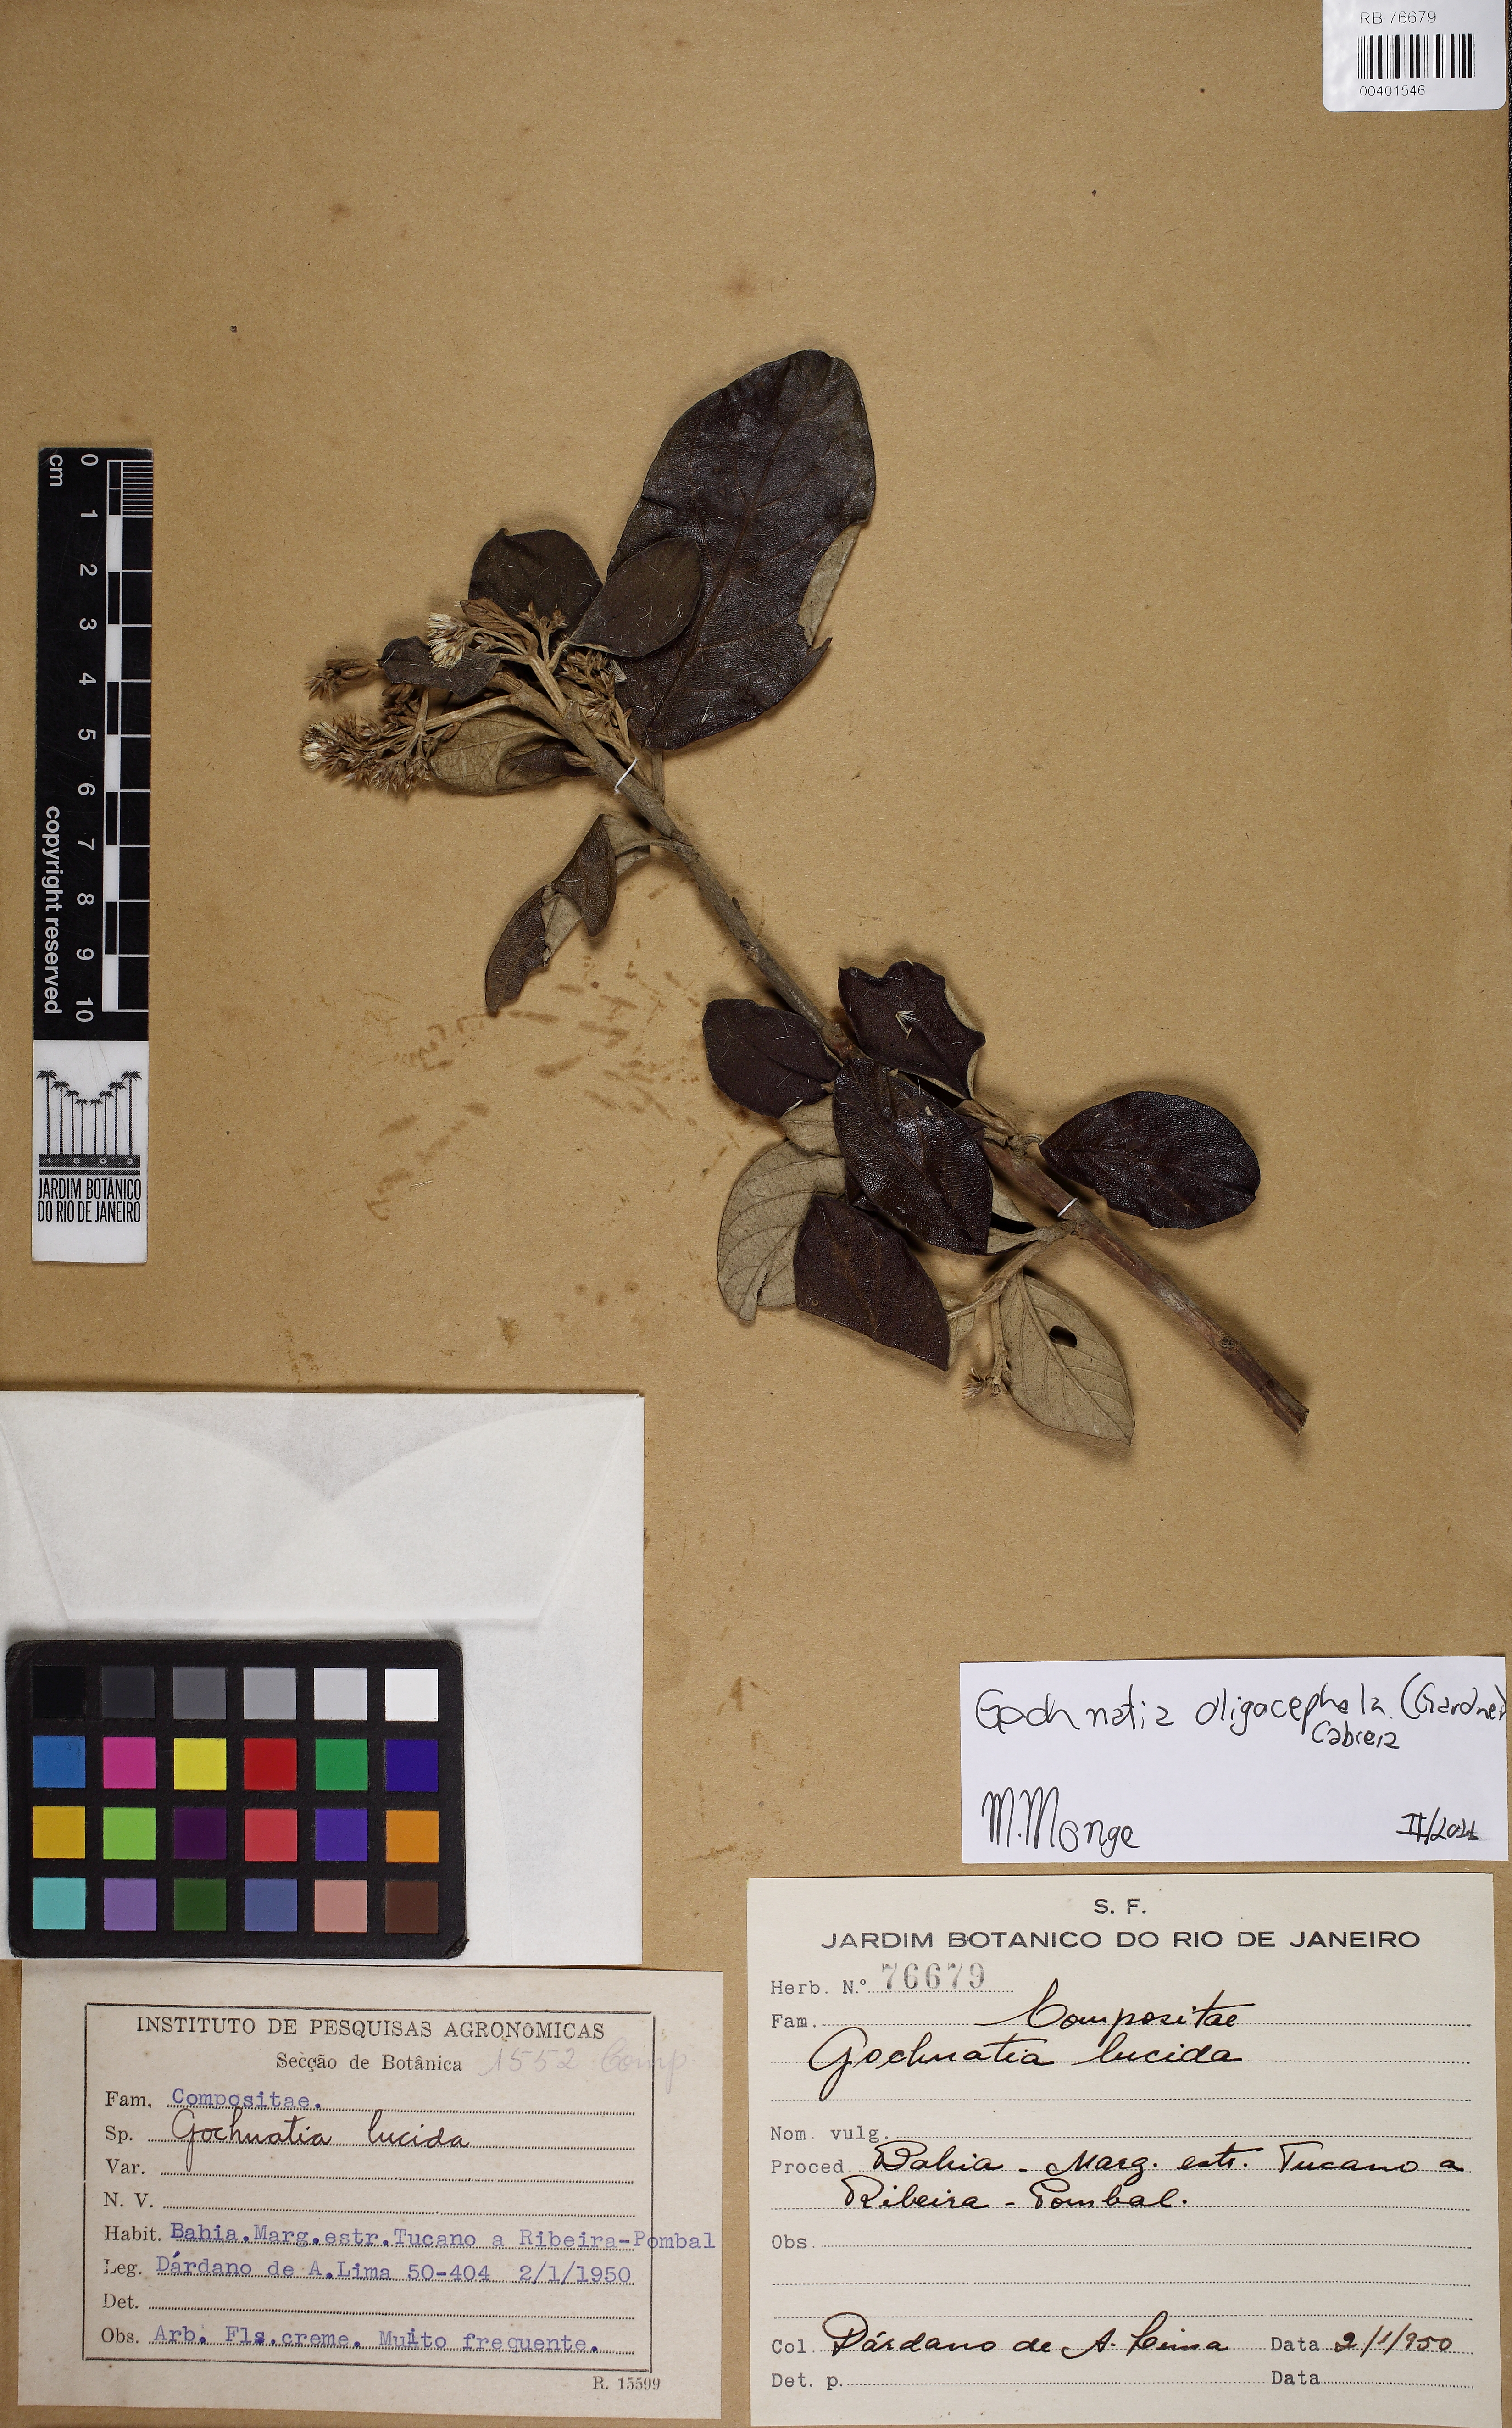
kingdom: Plantae
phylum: Tracheophyta
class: Magnoliopsida
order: Asterales
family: Asteraceae
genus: Moquiniastrum
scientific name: Moquiniastrum oligocephalum
